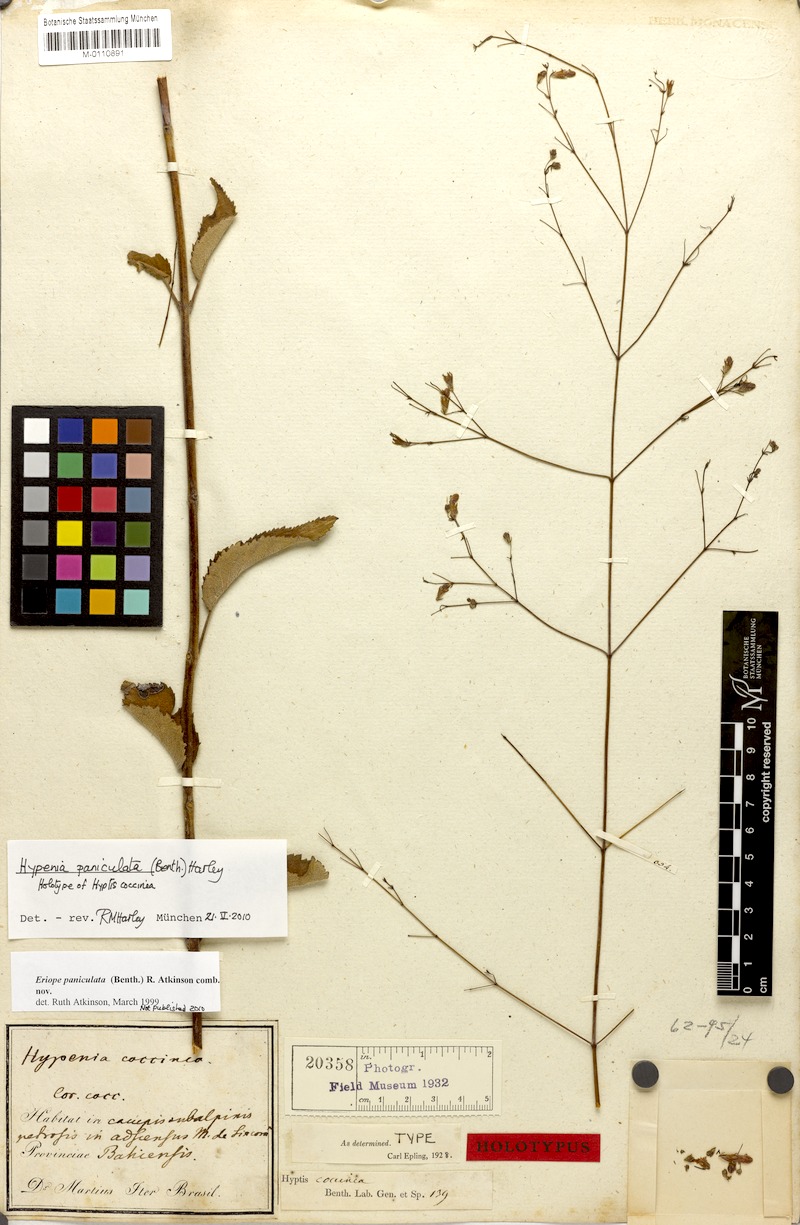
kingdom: Plantae
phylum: Tracheophyta
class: Magnoliopsida
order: Lamiales
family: Lamiaceae
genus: Hypenia
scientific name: Hypenia paniculata
